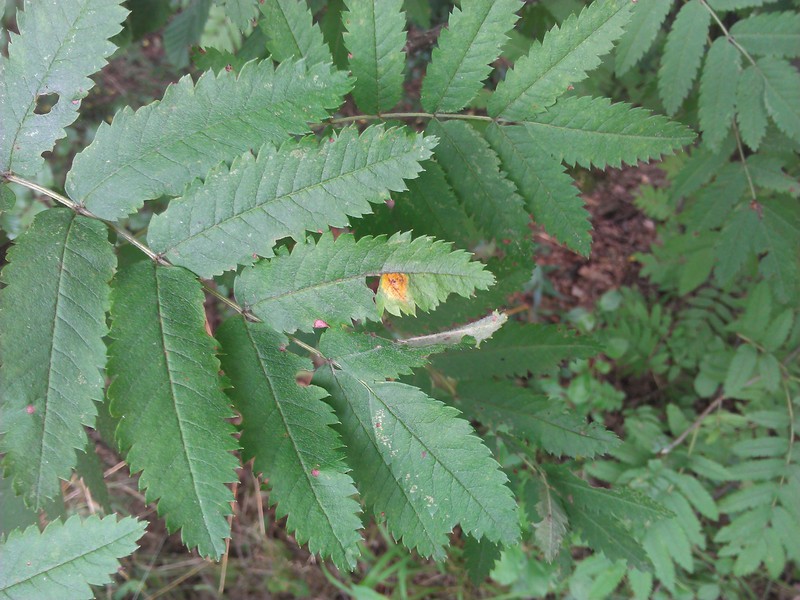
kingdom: Plantae
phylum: Tracheophyta
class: Magnoliopsida
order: Rosales
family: Rosaceae
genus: Sorbus
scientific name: Sorbus aucuparia
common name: Rowan
